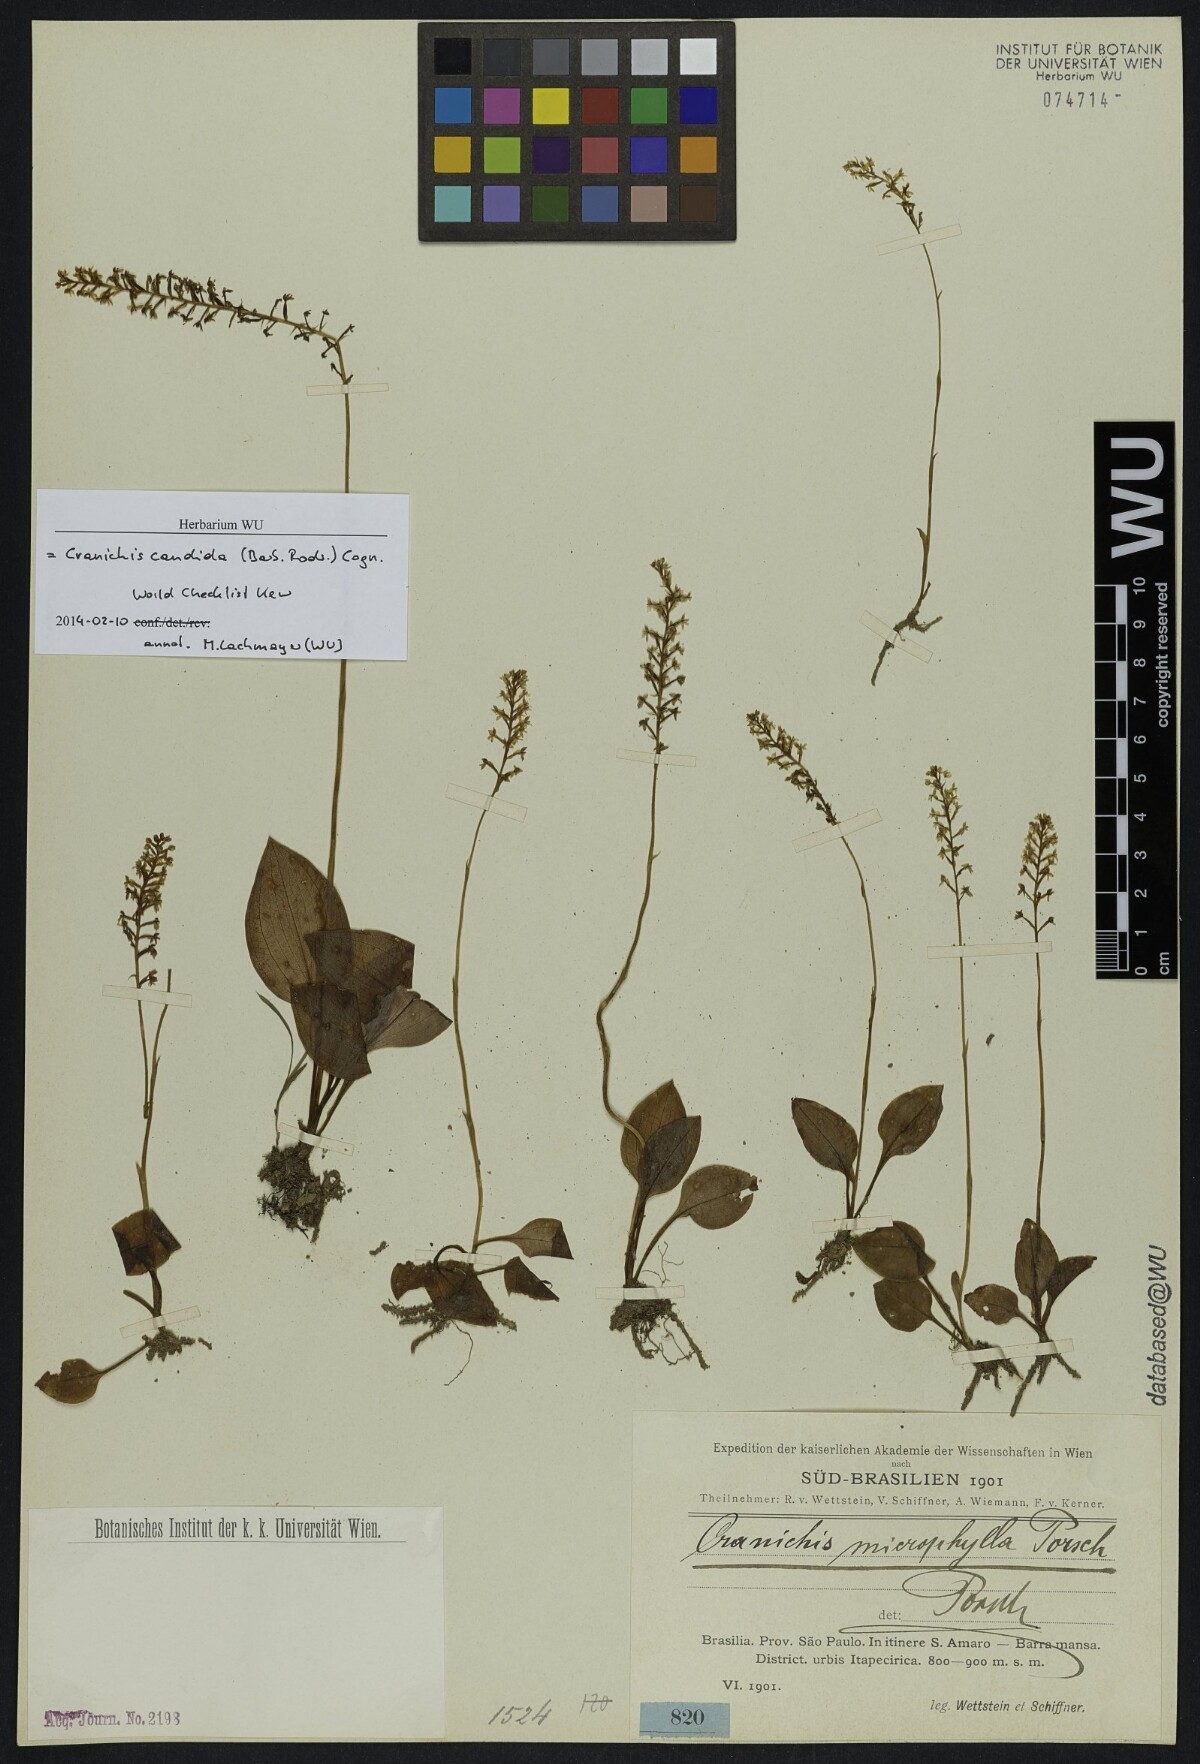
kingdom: Plantae
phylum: Tracheophyta
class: Liliopsida
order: Asparagales
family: Orchidaceae
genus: Cranichis
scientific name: Cranichis candida
